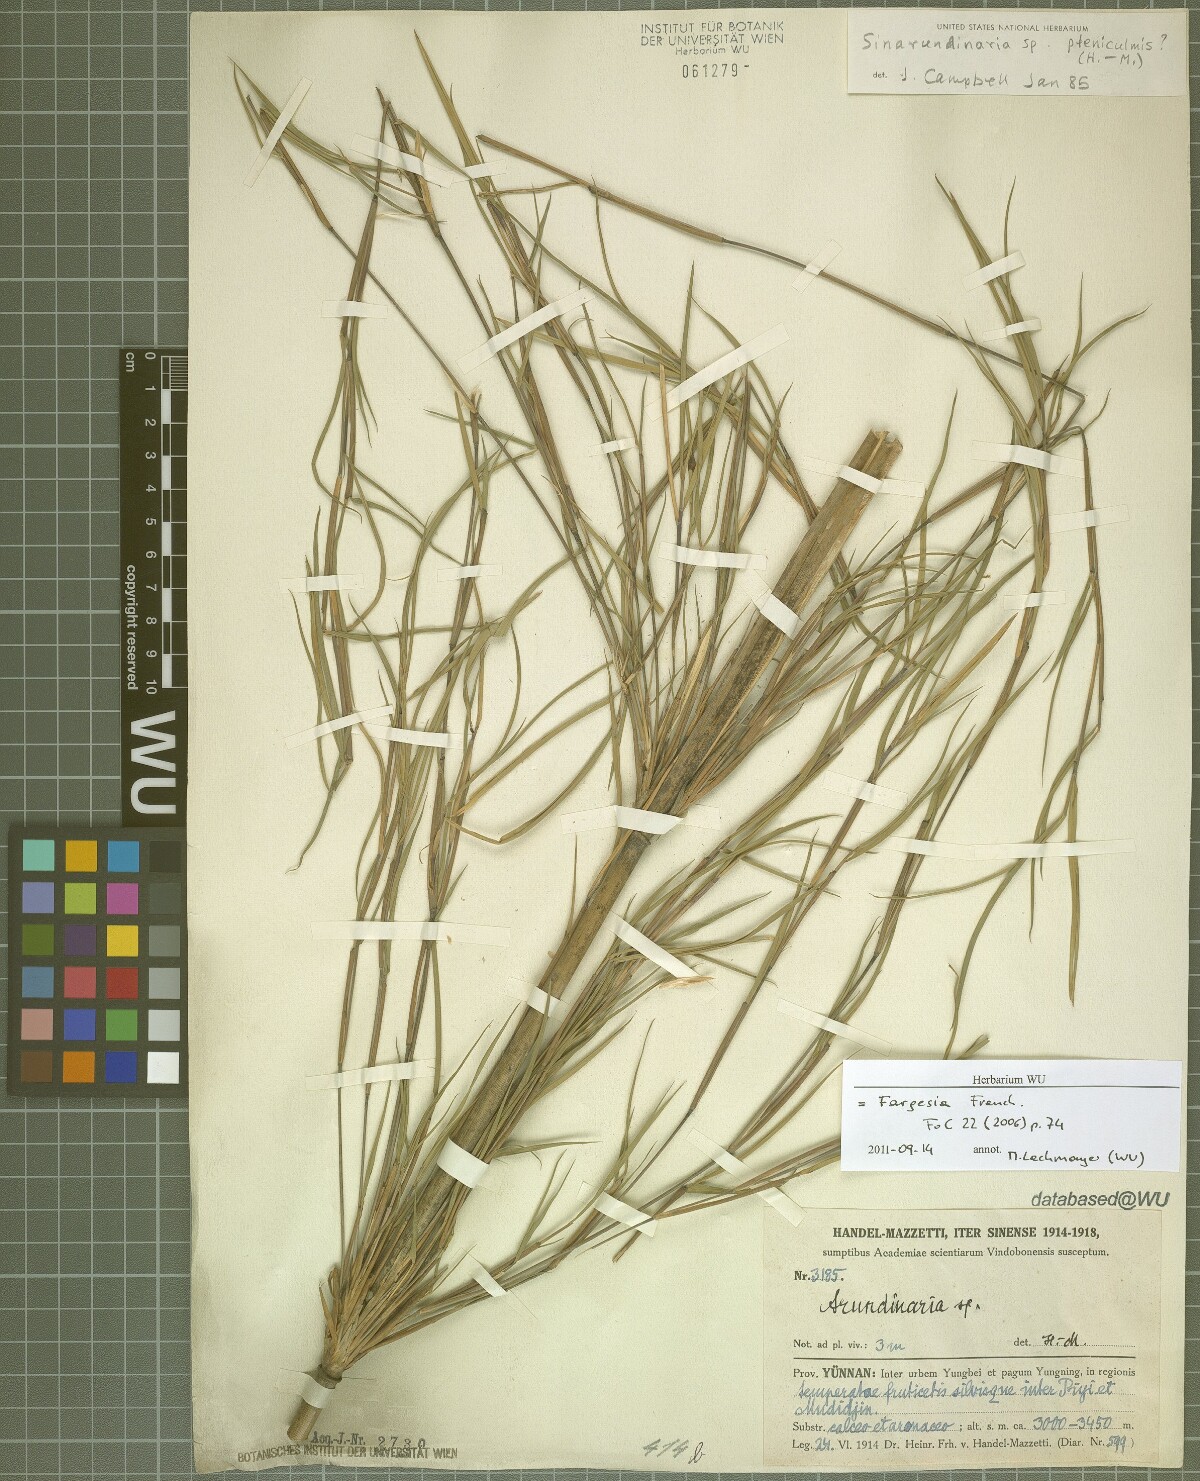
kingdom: Plantae
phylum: Tracheophyta
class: Liliopsida
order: Poales
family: Poaceae
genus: Fargesia
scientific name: Fargesia
